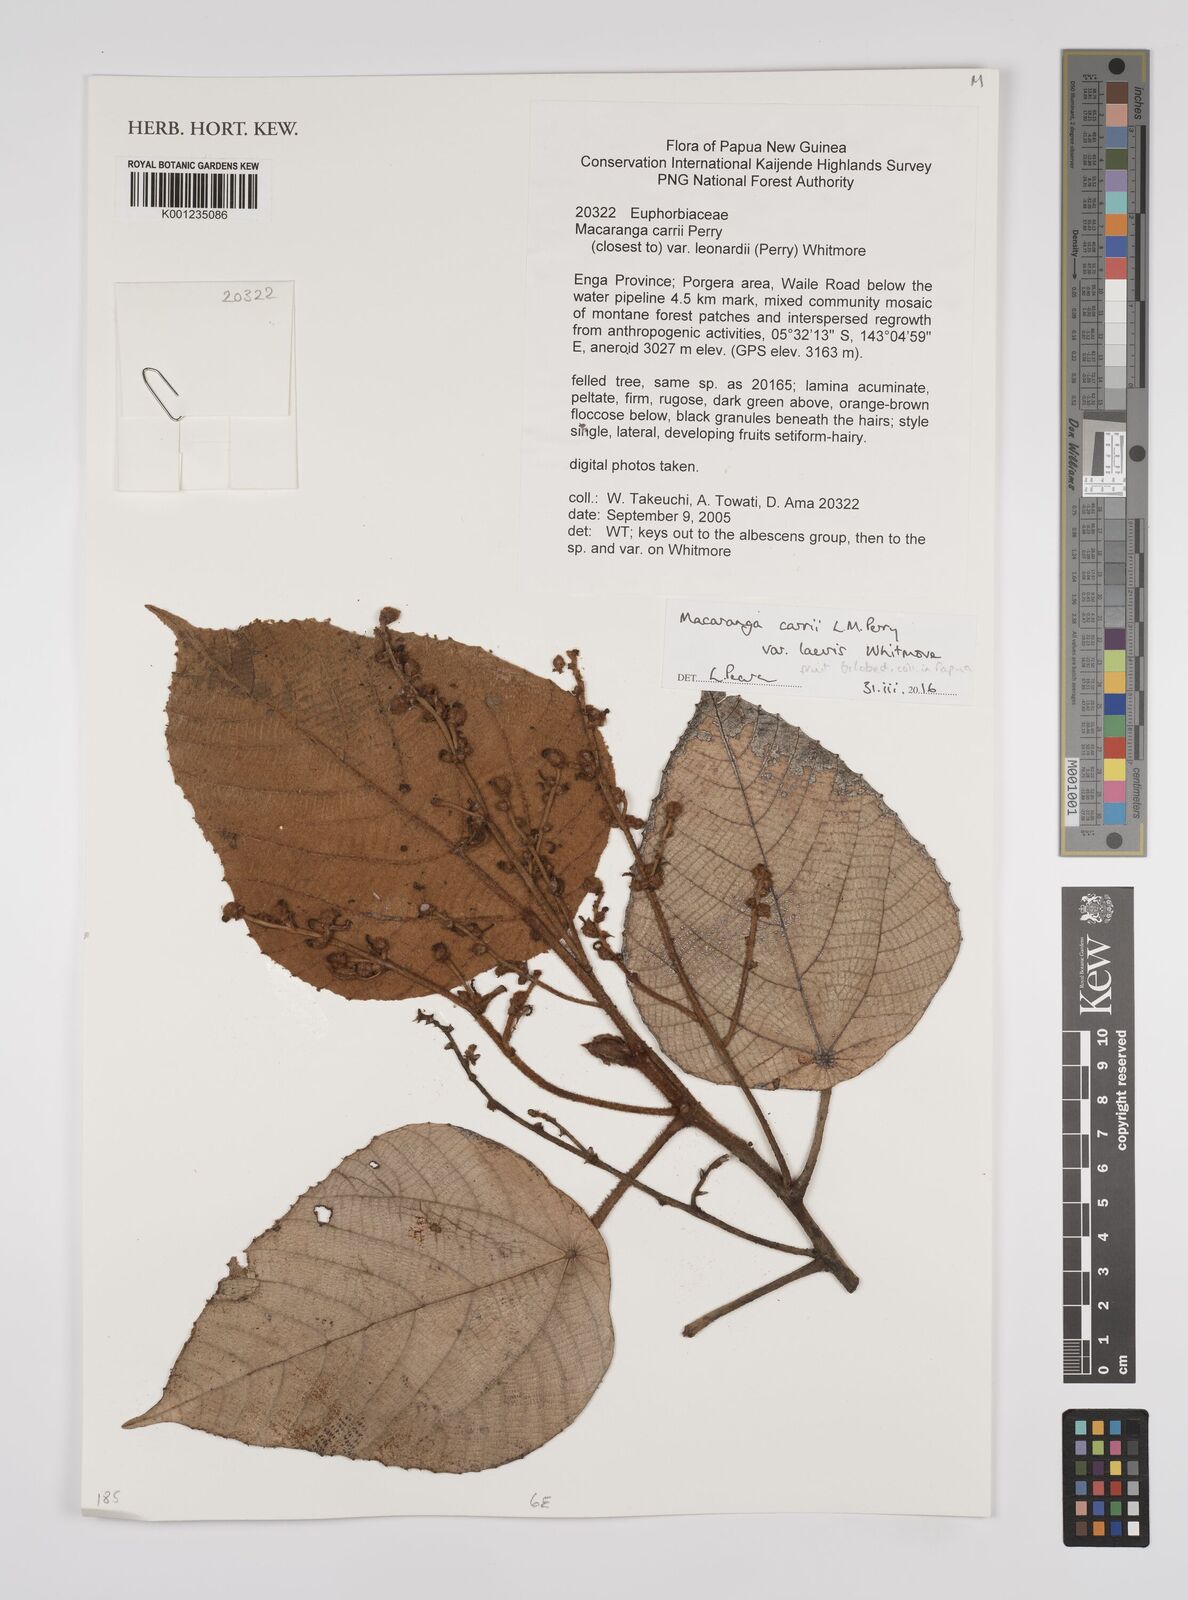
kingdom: Plantae
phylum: Tracheophyta
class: Magnoliopsida
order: Malpighiales
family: Euphorbiaceae
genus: Macaranga
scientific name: Macaranga carrii
